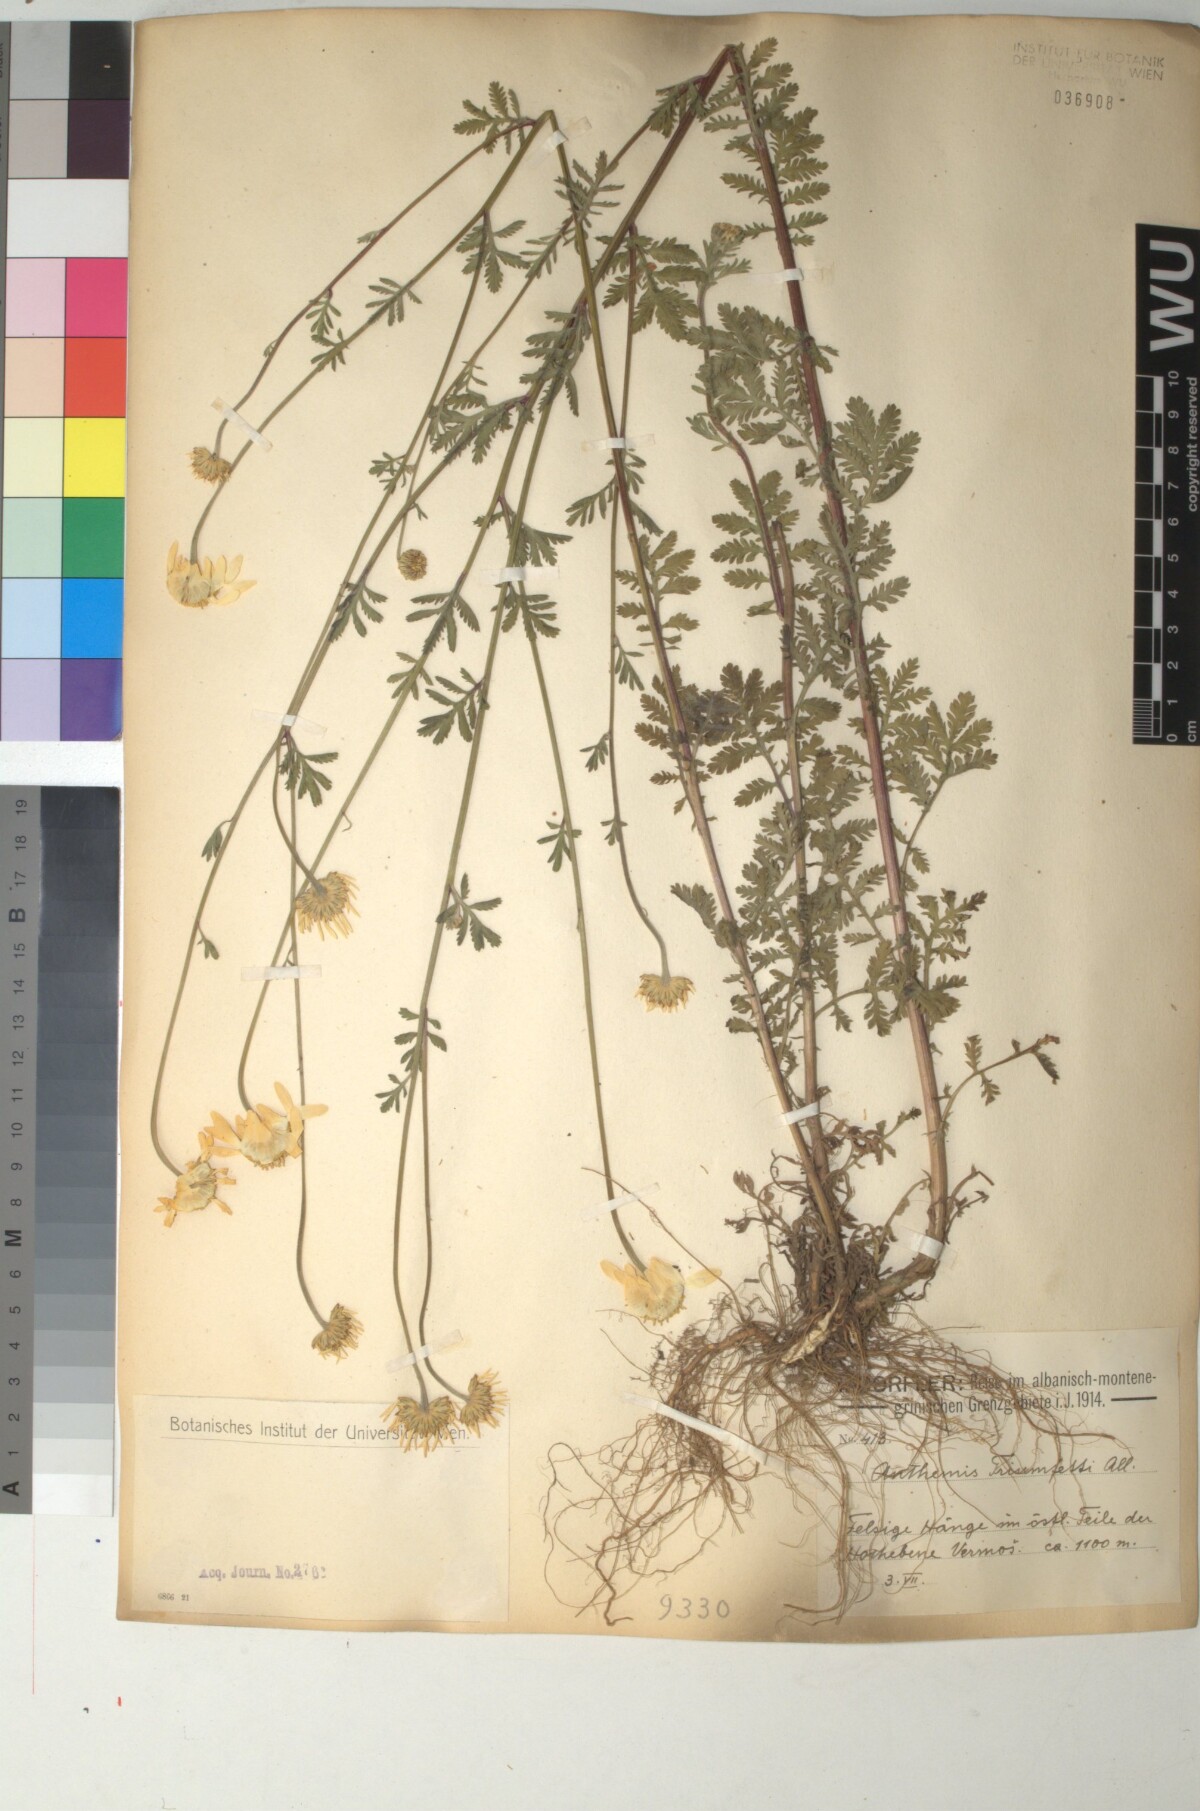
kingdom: Plantae
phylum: Tracheophyta
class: Magnoliopsida
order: Asterales
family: Asteraceae
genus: Cota
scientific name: Cota triumfetti
